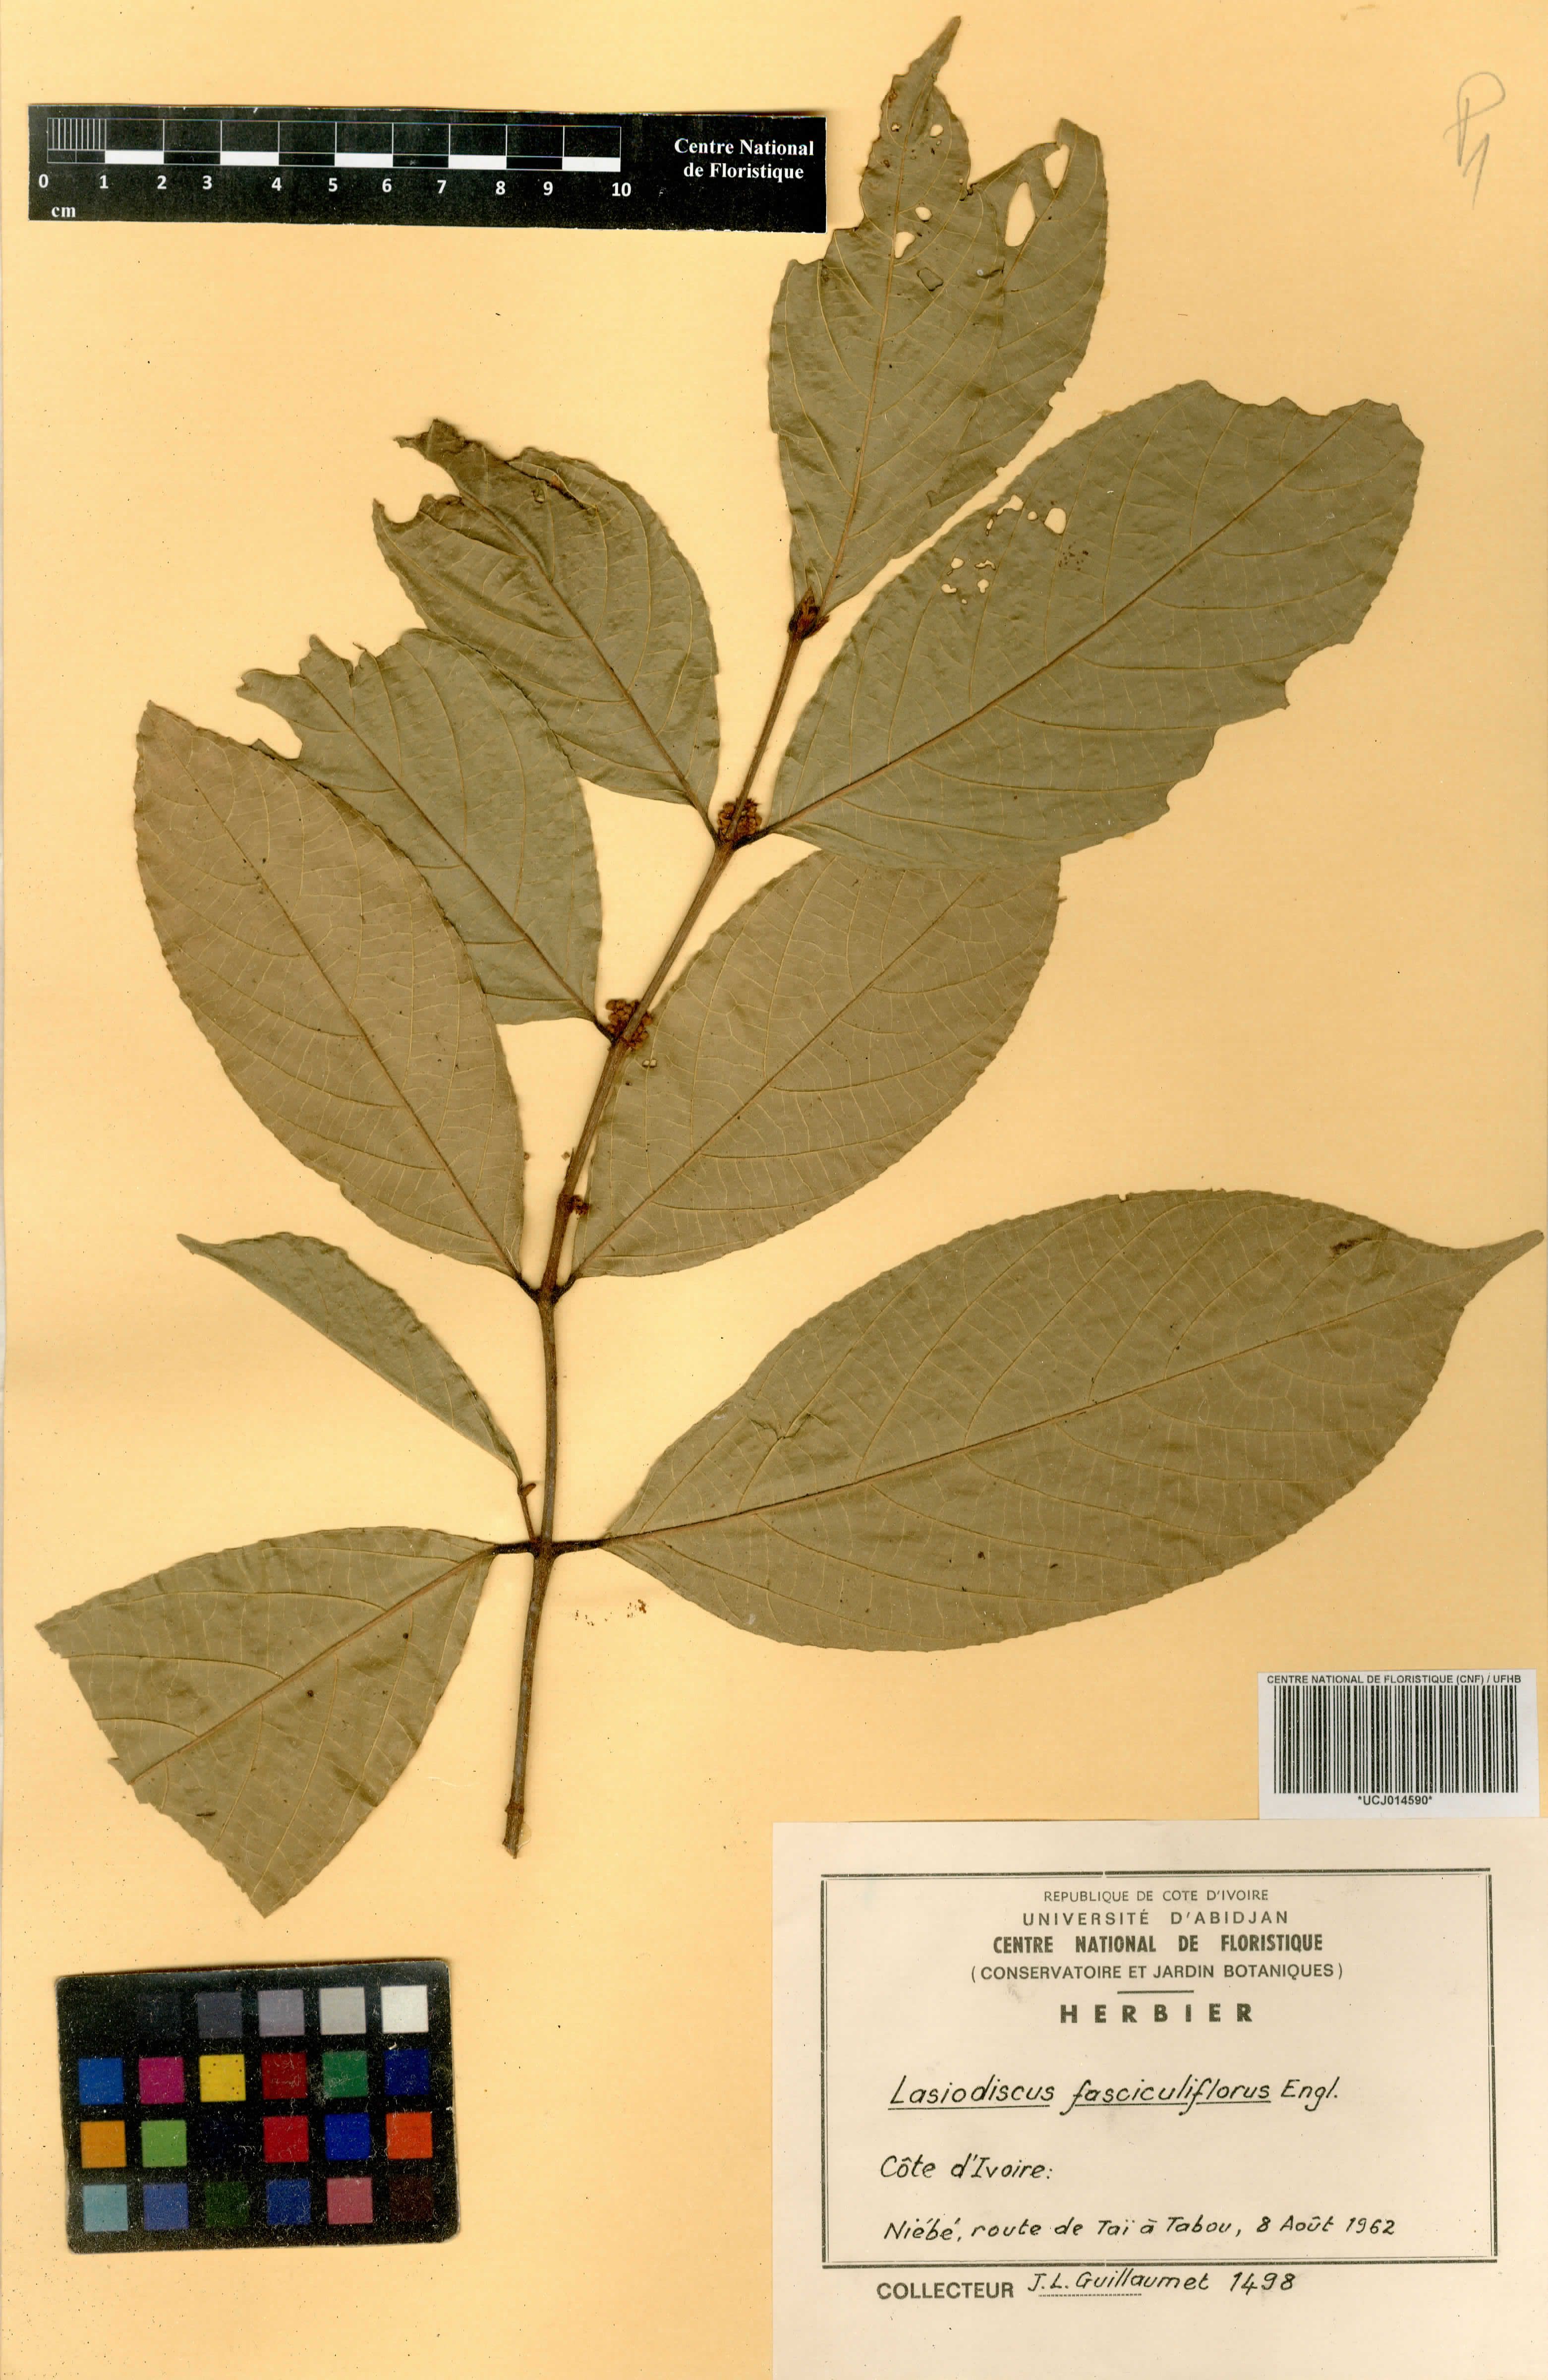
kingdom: Plantae
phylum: Tracheophyta
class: Magnoliopsida
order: Rosales
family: Rhamnaceae
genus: Lasiodiscus
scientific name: Lasiodiscus fasciculiflorus
